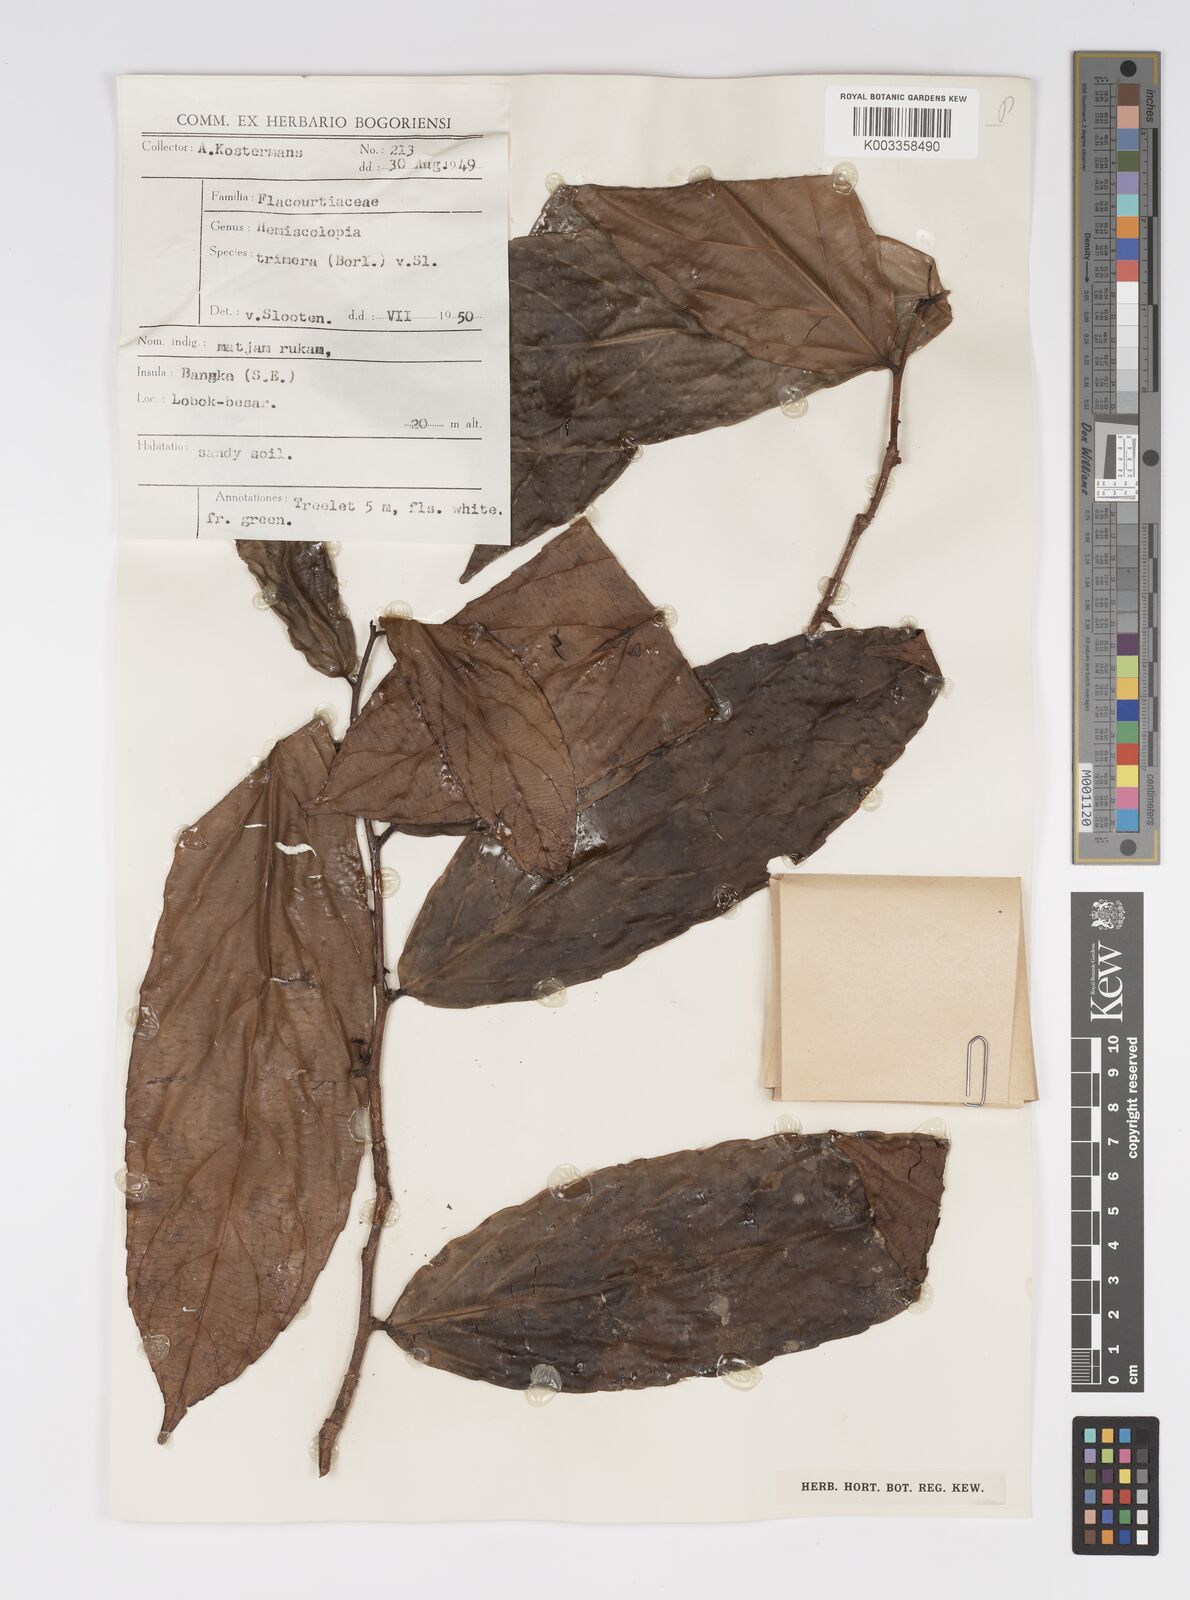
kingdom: Plantae
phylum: Tracheophyta
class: Magnoliopsida
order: Malpighiales
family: Salicaceae
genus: Hemiscolopia
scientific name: Hemiscolopia trimera
